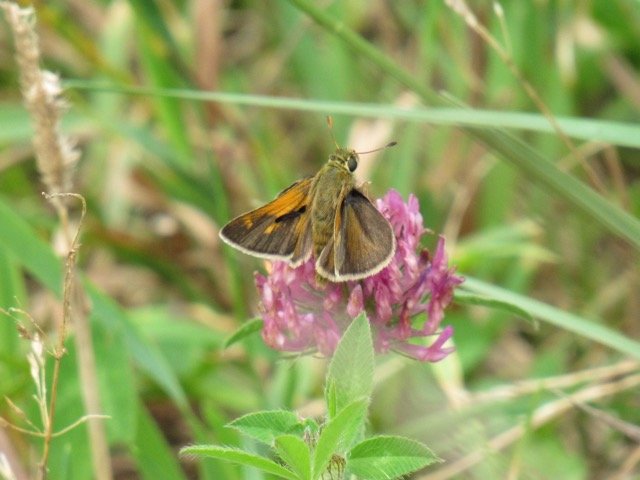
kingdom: Animalia
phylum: Arthropoda
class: Insecta
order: Lepidoptera
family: Hesperiidae
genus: Polites
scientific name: Polites
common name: Crossline Skipper
